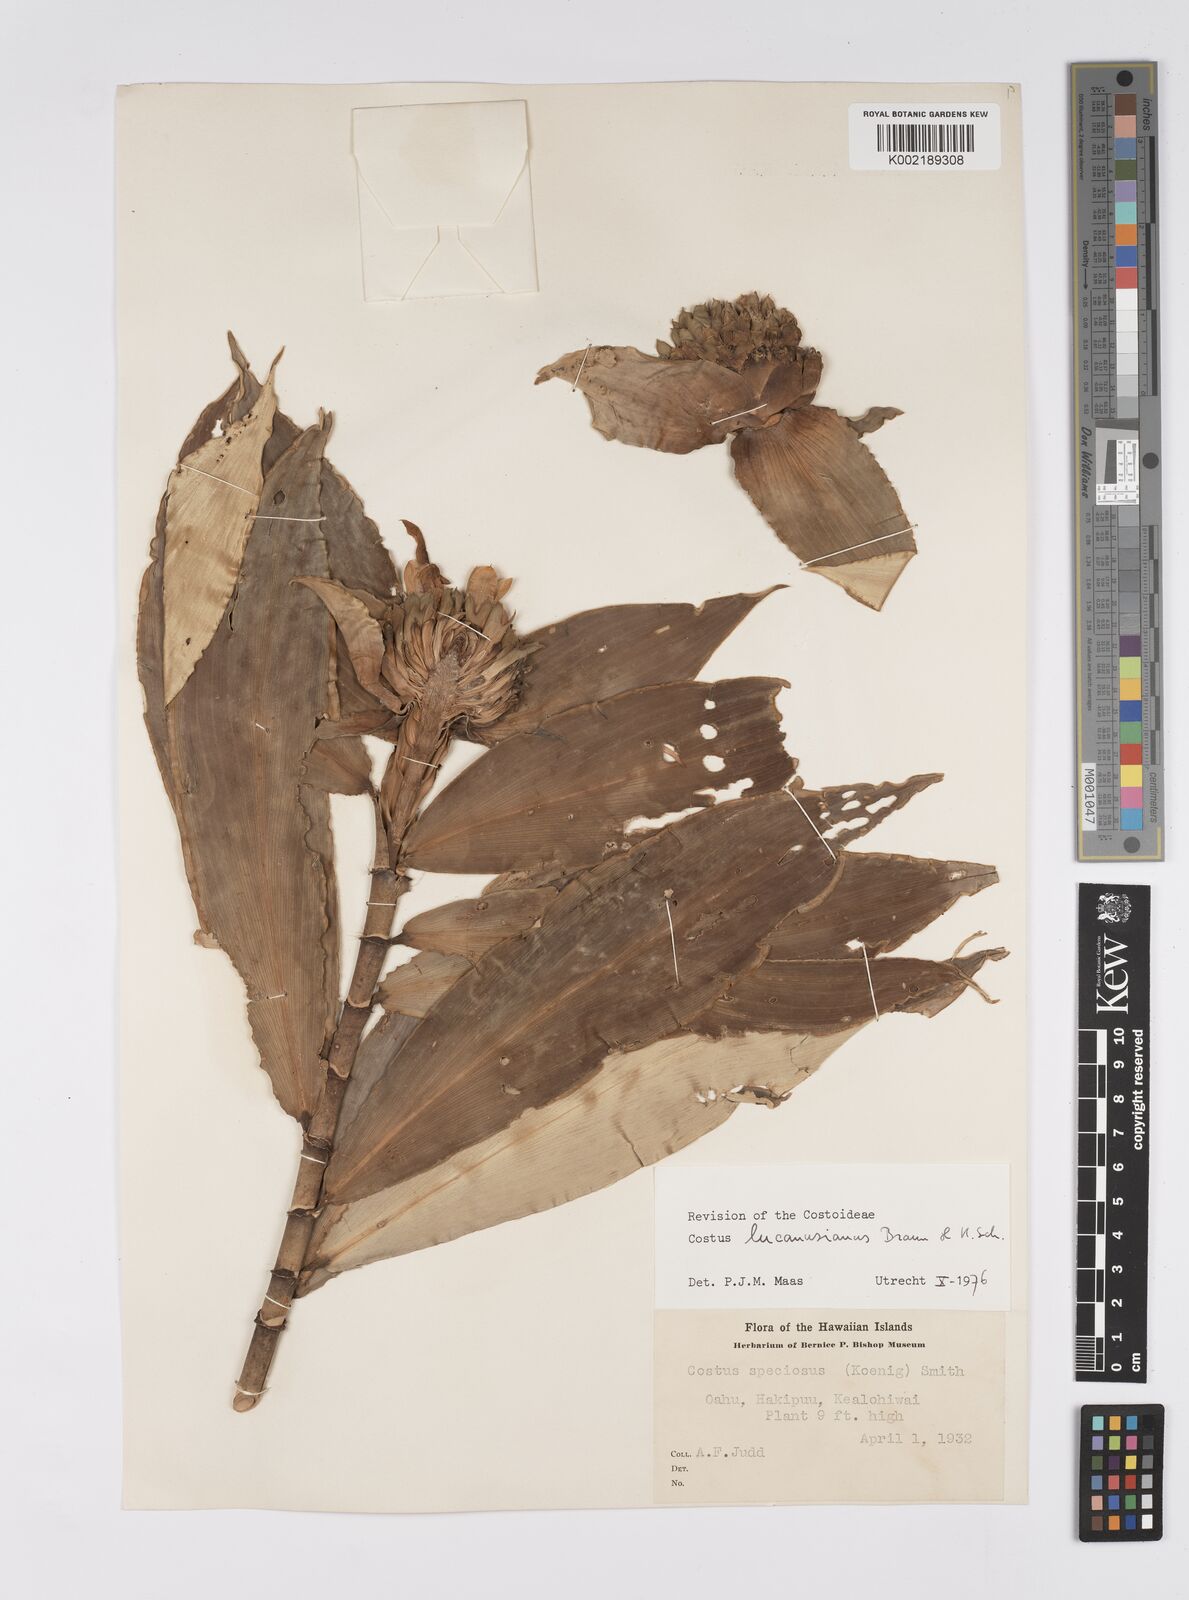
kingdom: Plantae
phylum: Tracheophyta
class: Liliopsida
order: Zingiberales
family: Costaceae
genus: Costus
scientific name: Costus lucanusianus
